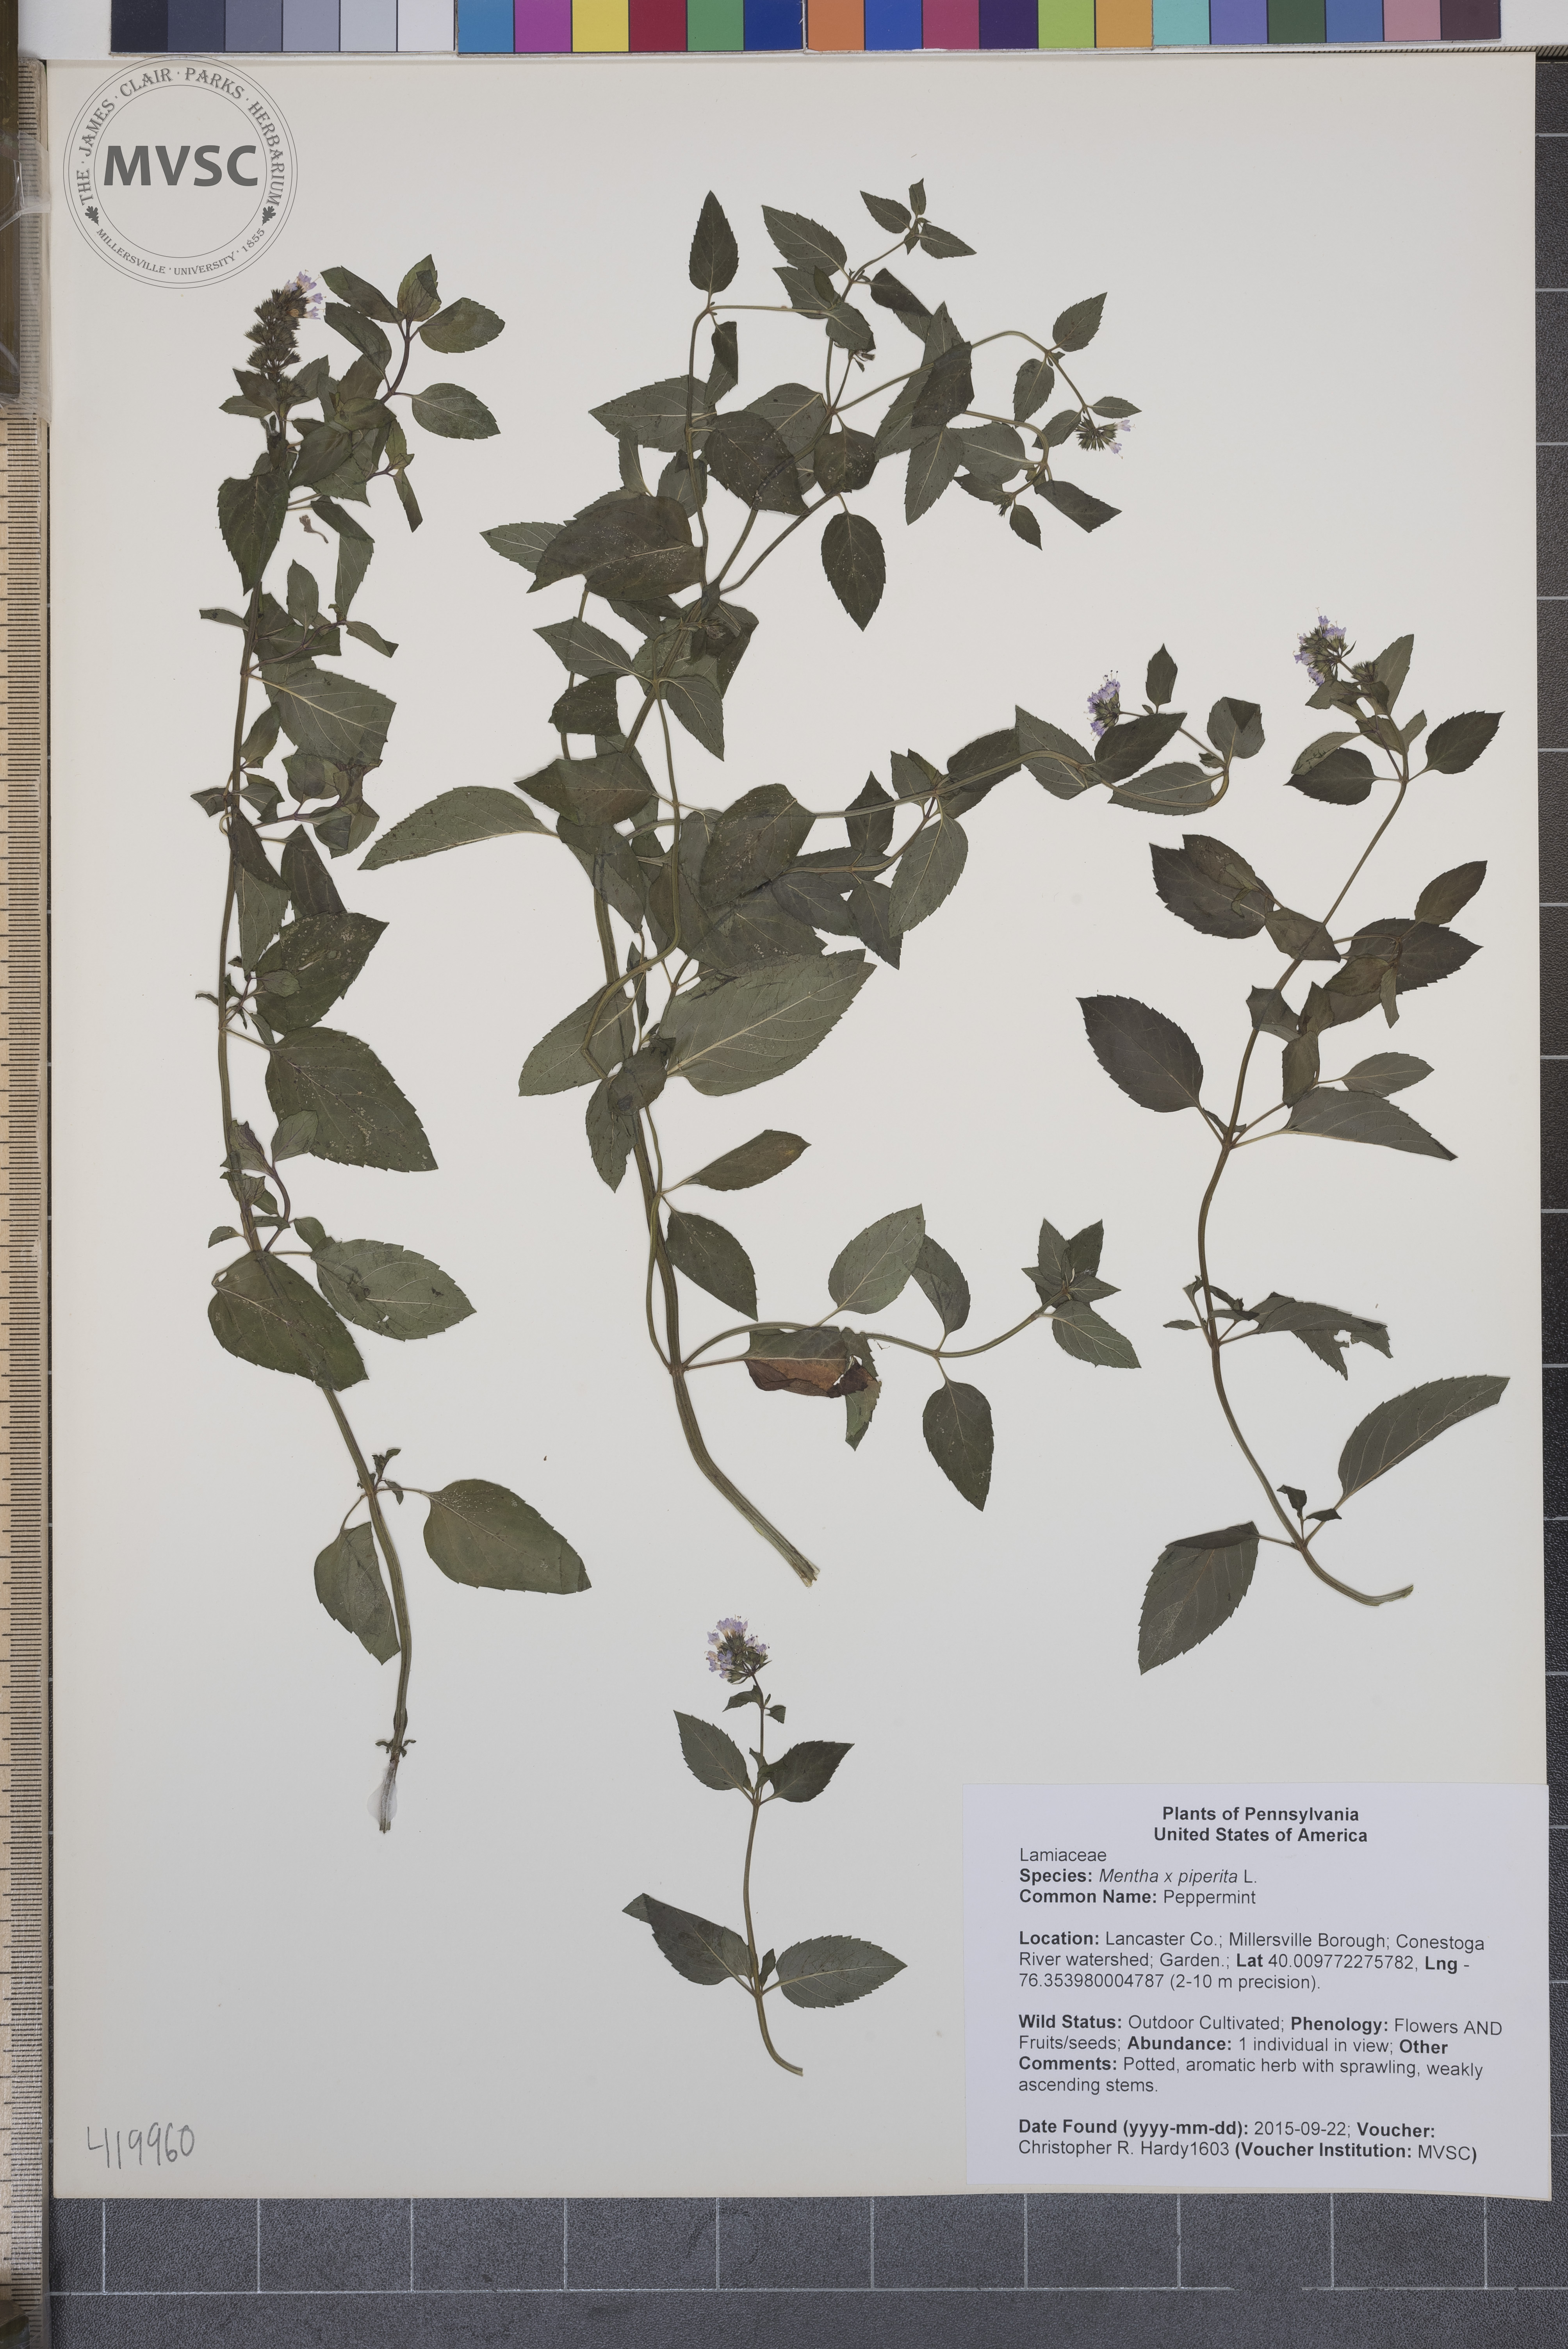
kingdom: Plantae
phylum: Tracheophyta
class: Magnoliopsida
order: Lamiales
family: Lamiaceae
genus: Mentha
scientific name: Mentha piperita
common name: Peppermint
